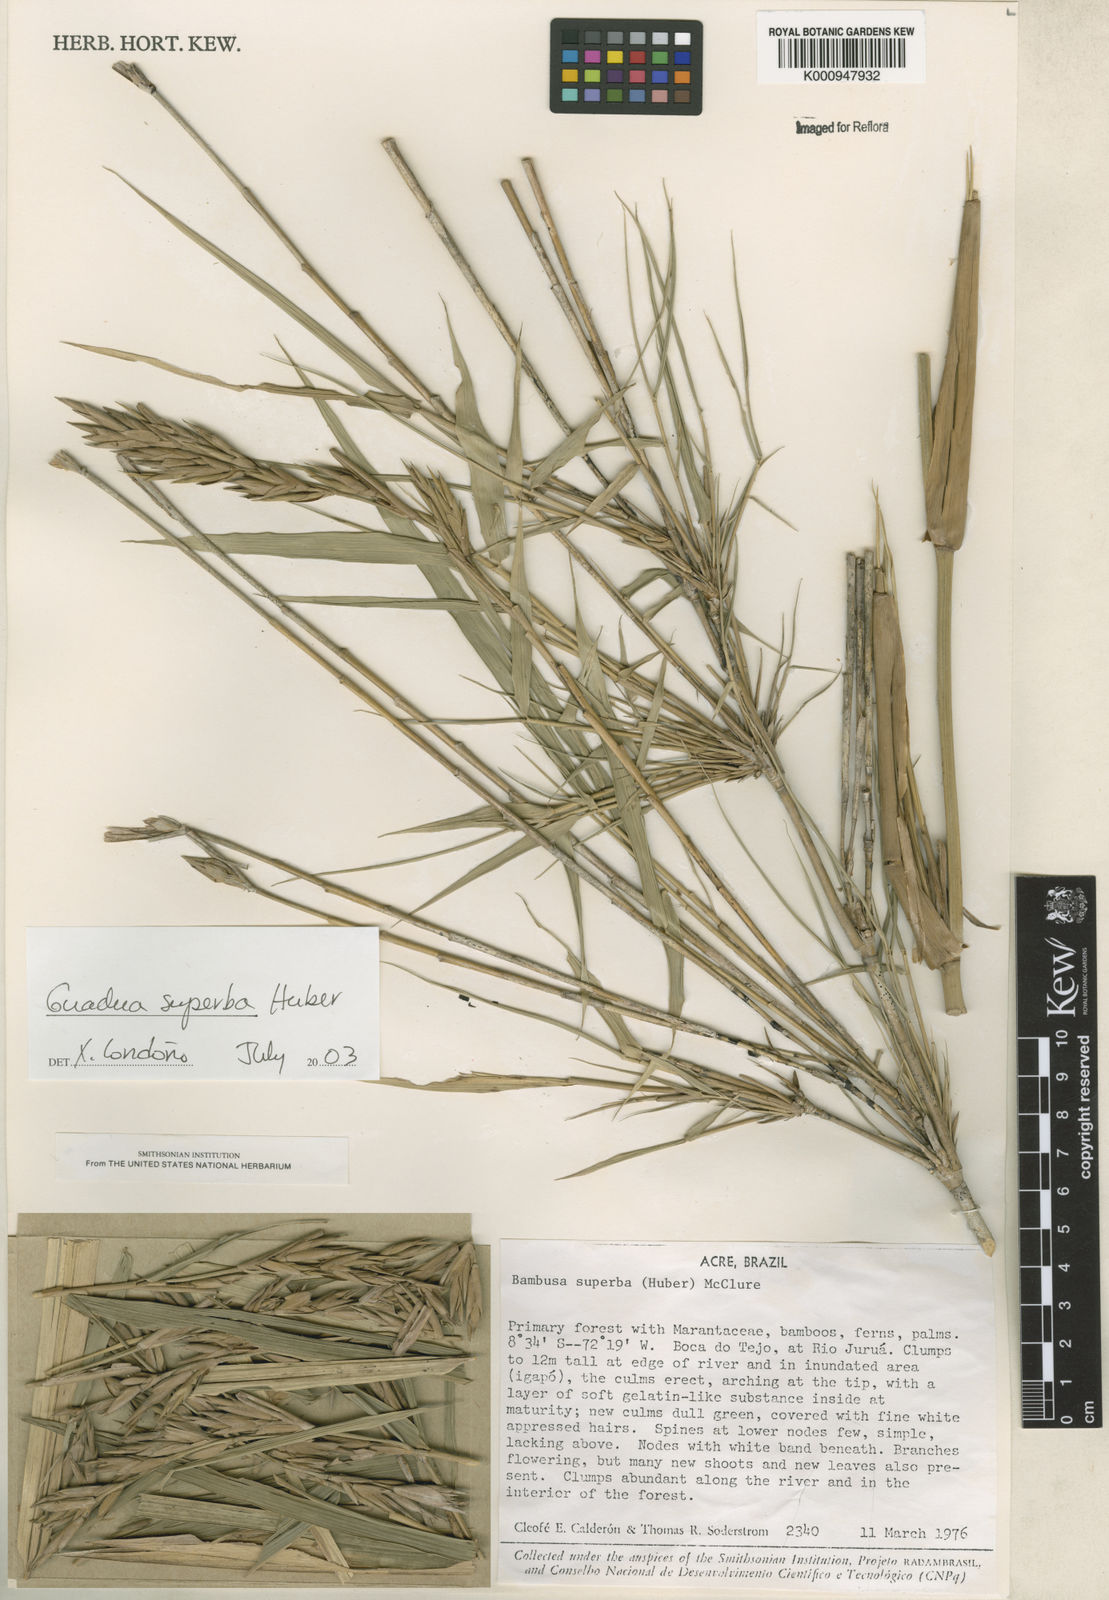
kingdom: Plantae
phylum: Tracheophyta
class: Liliopsida
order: Poales
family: Poaceae
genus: Guadua
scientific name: Guadua superba
